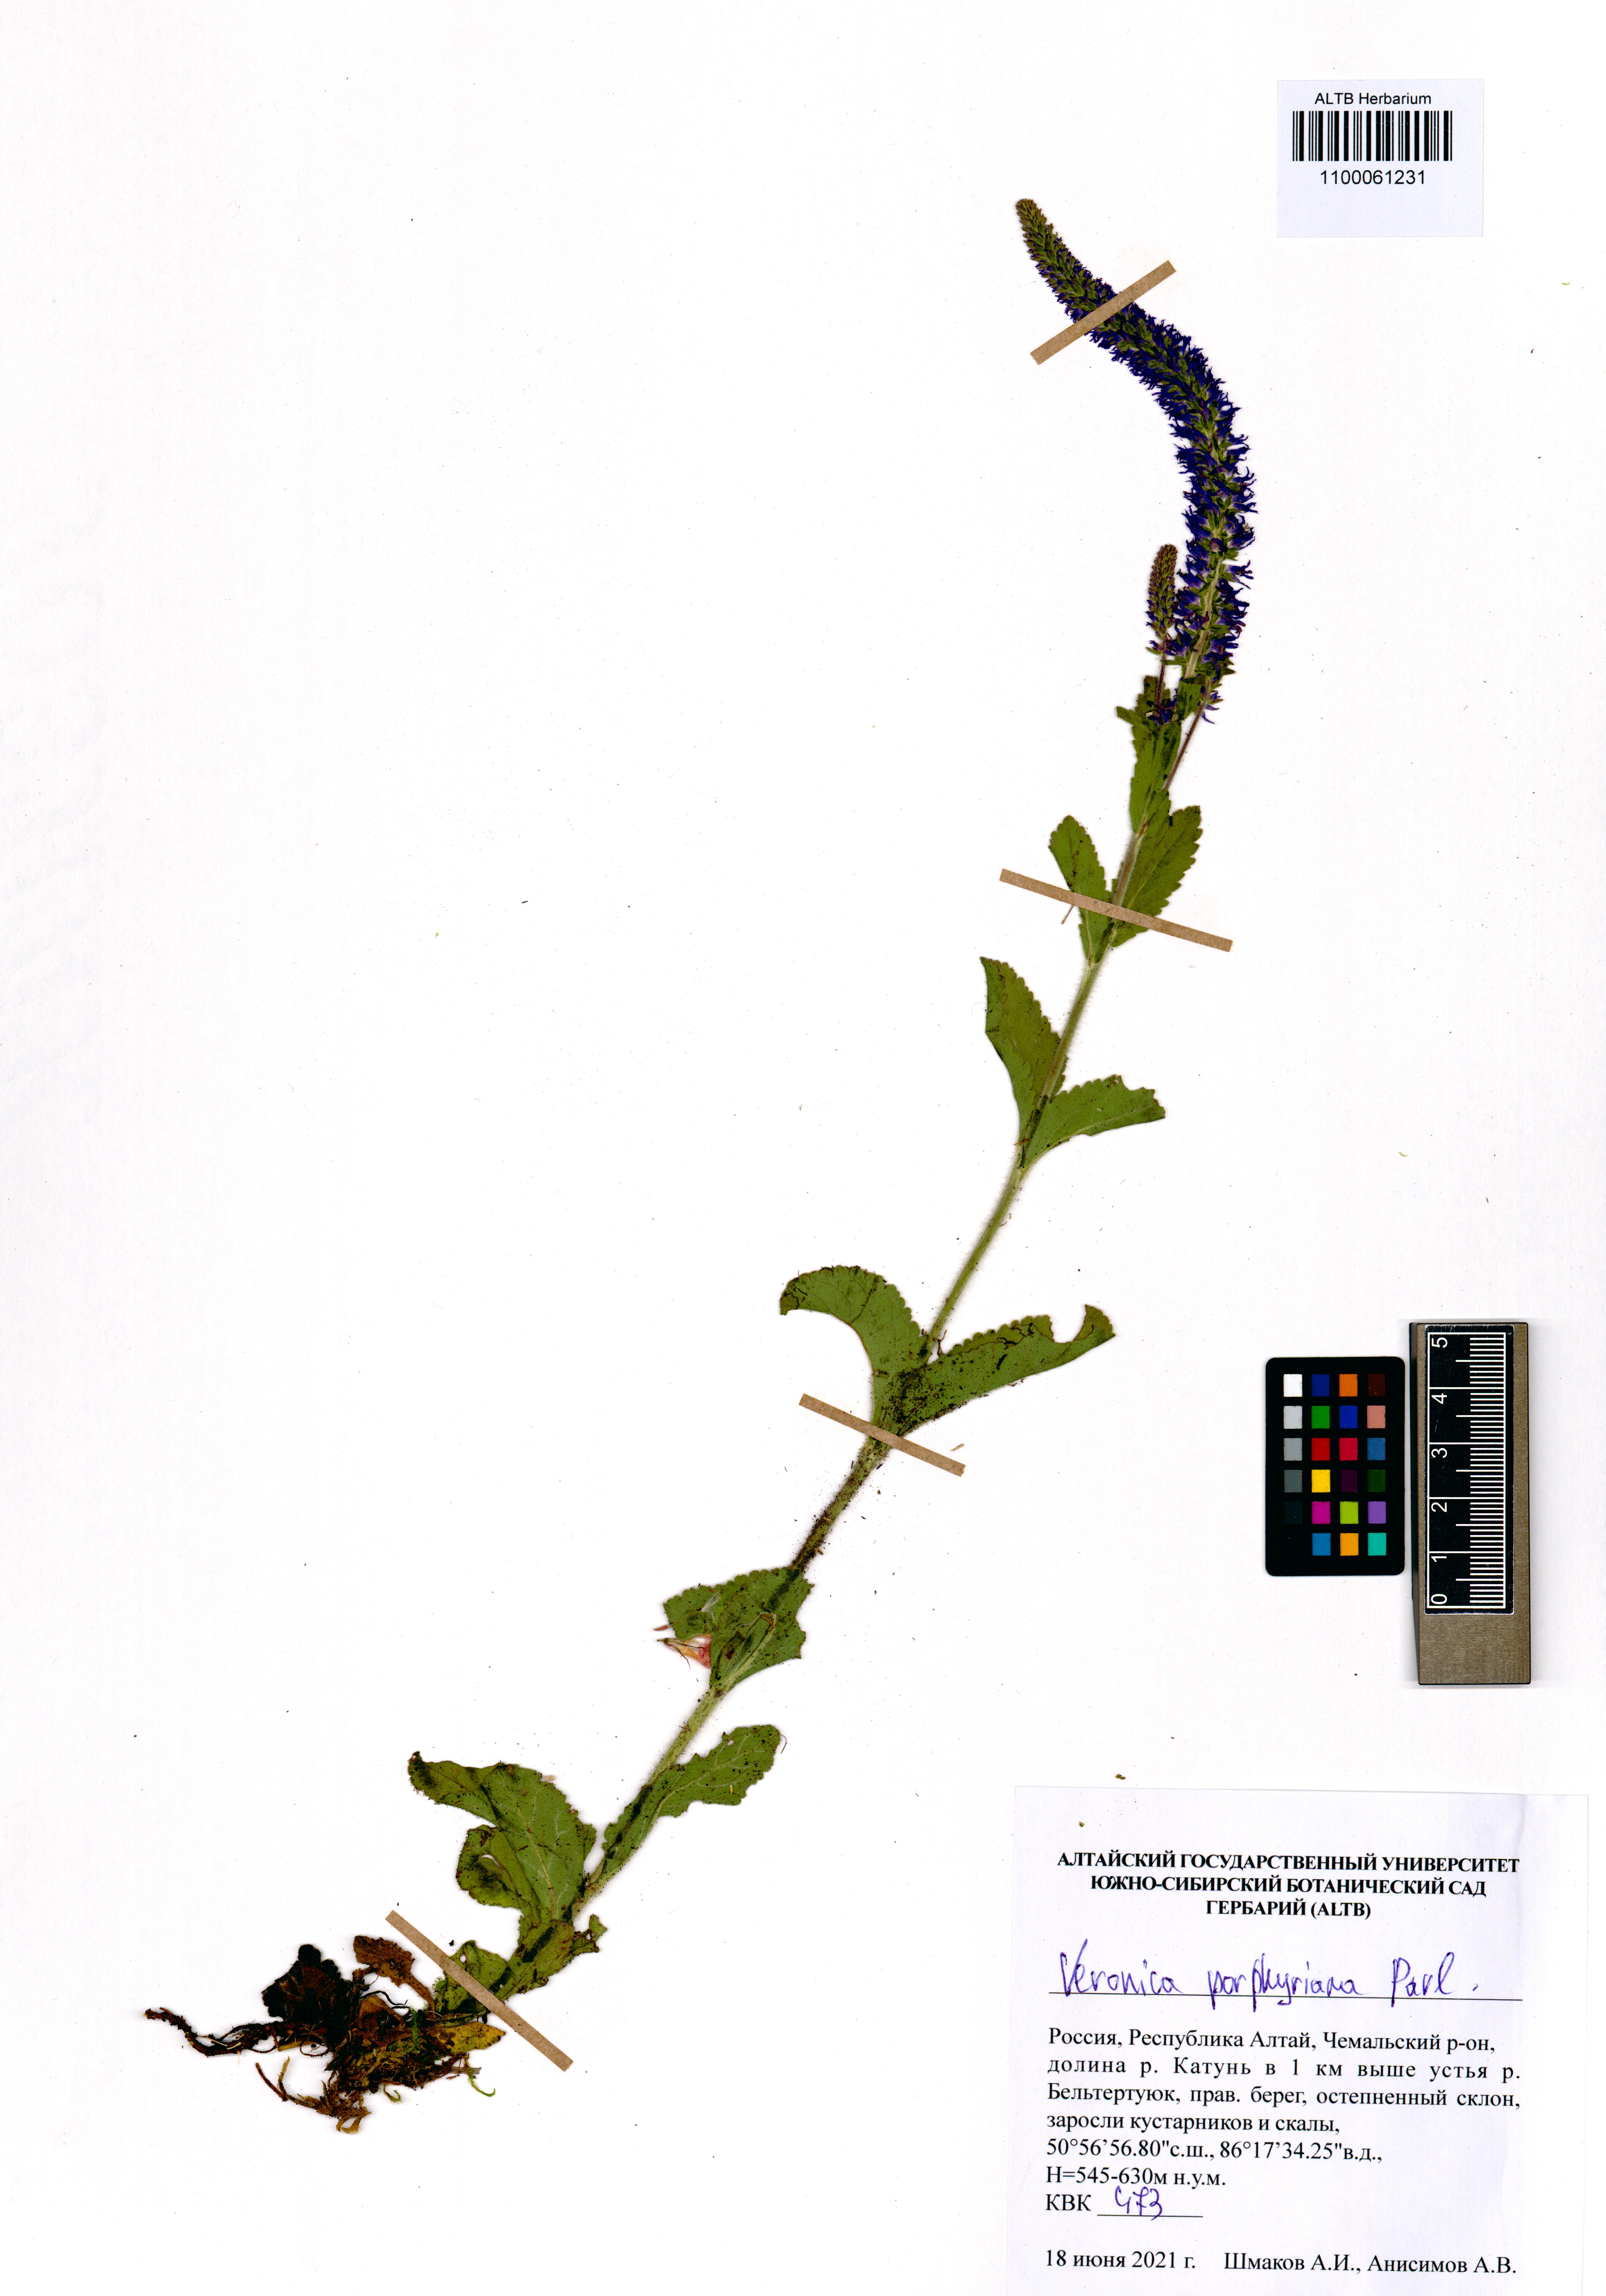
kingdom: Plantae
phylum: Tracheophyta
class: Magnoliopsida
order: Lamiales
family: Plantaginaceae
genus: Veronica
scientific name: Veronica porphyriana
